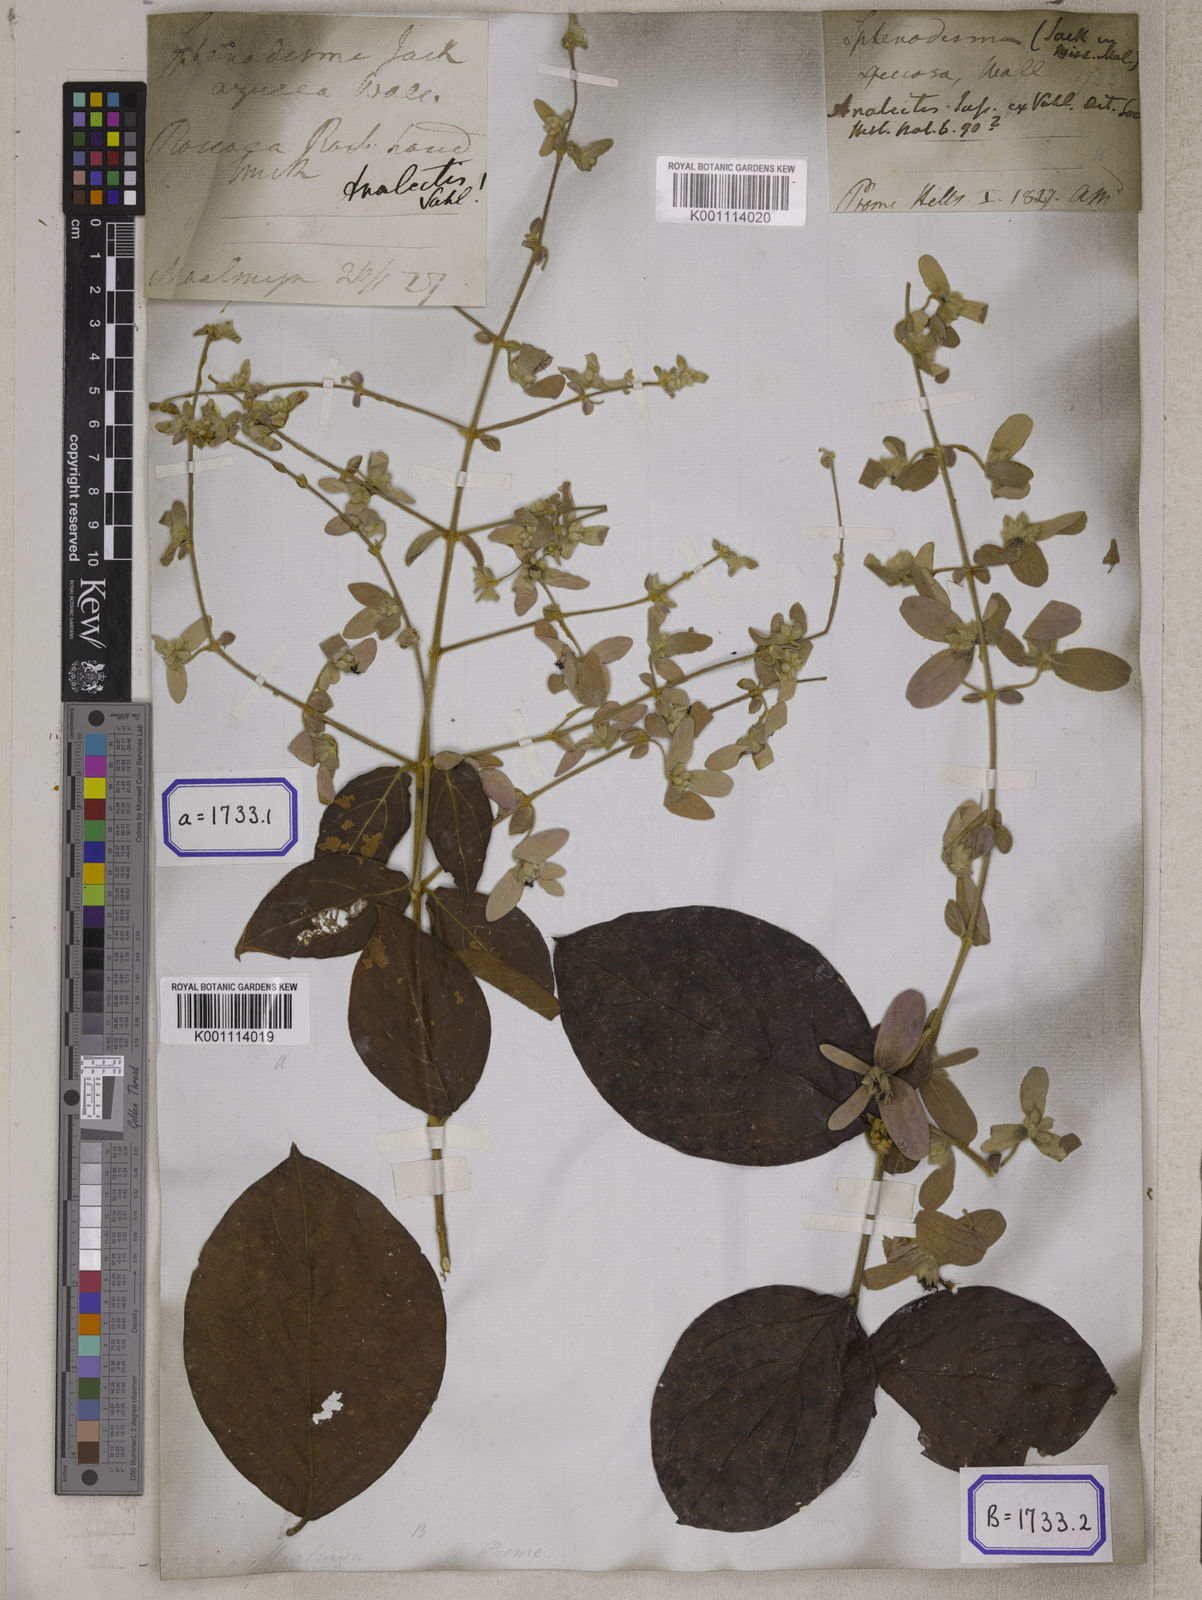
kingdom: Plantae
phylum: Tracheophyta
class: Magnoliopsida
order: Lamiales
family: Lamiaceae
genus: Congea
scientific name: Congea tomentosa
